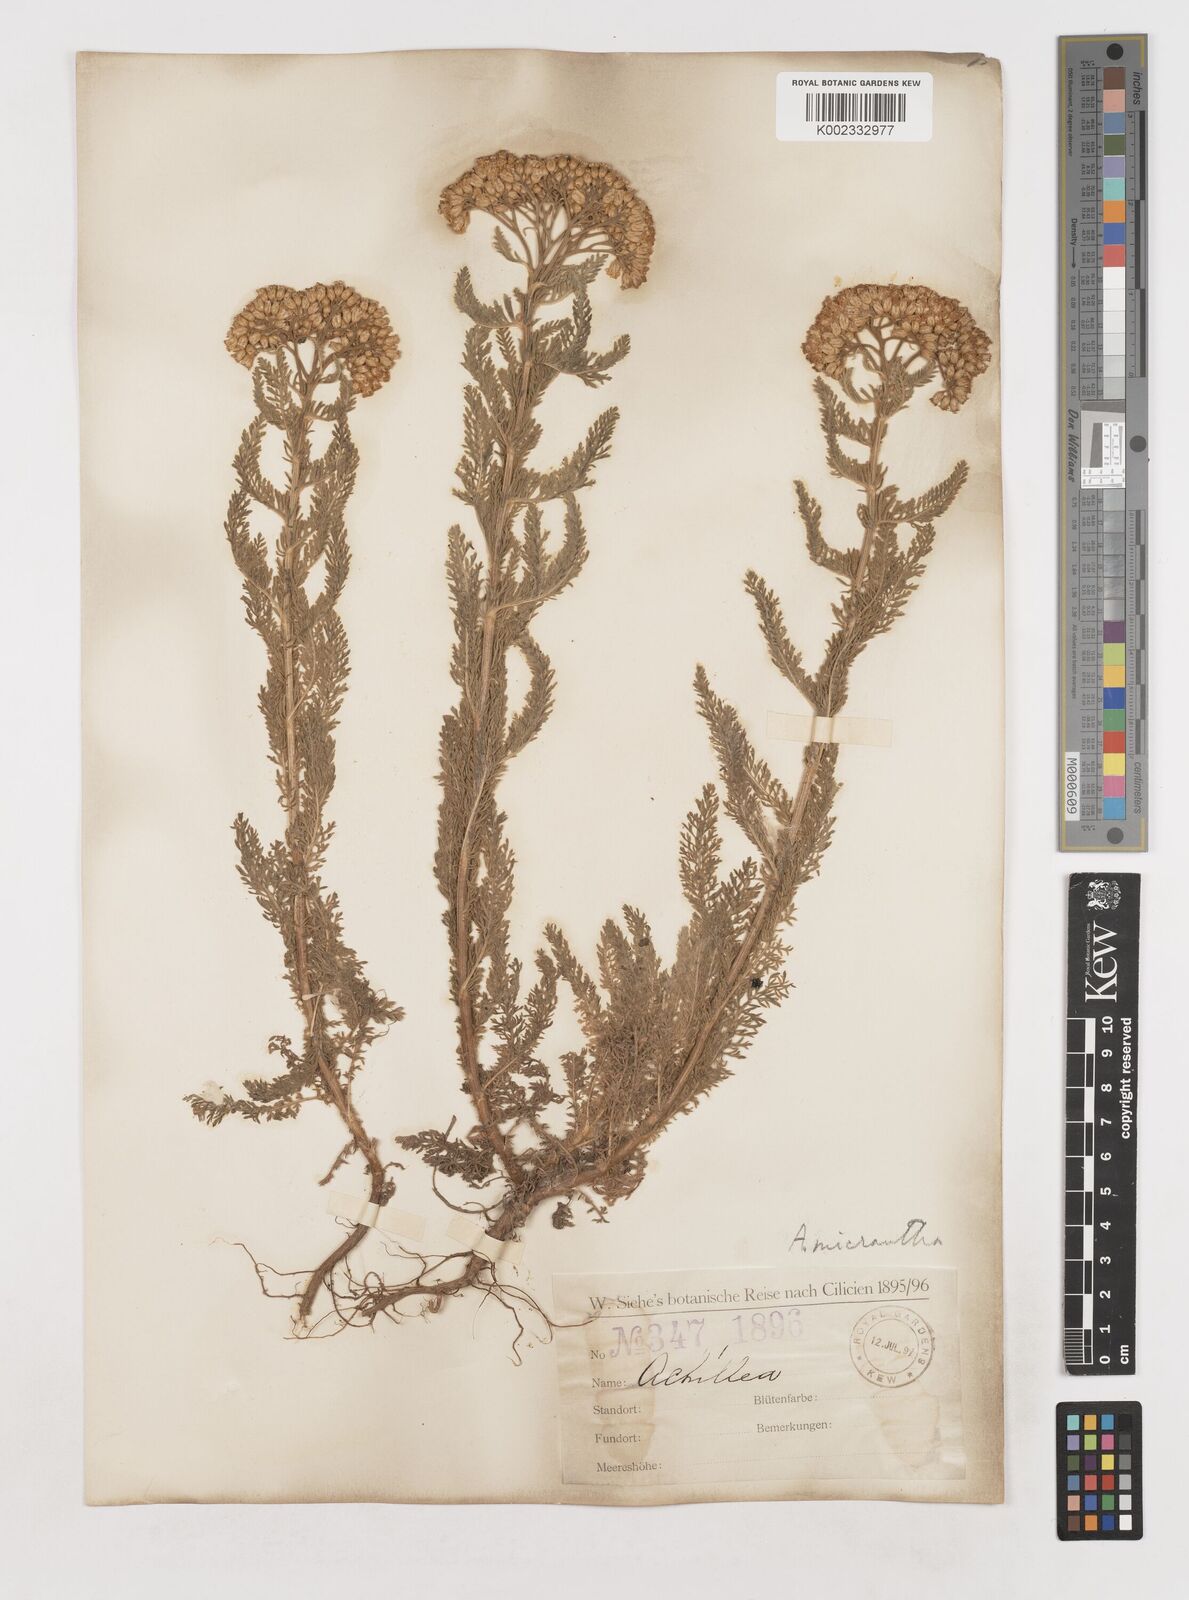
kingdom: Plantae
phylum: Tracheophyta
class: Magnoliopsida
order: Asterales
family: Asteraceae
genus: Achillea
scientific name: Achillea arabica
